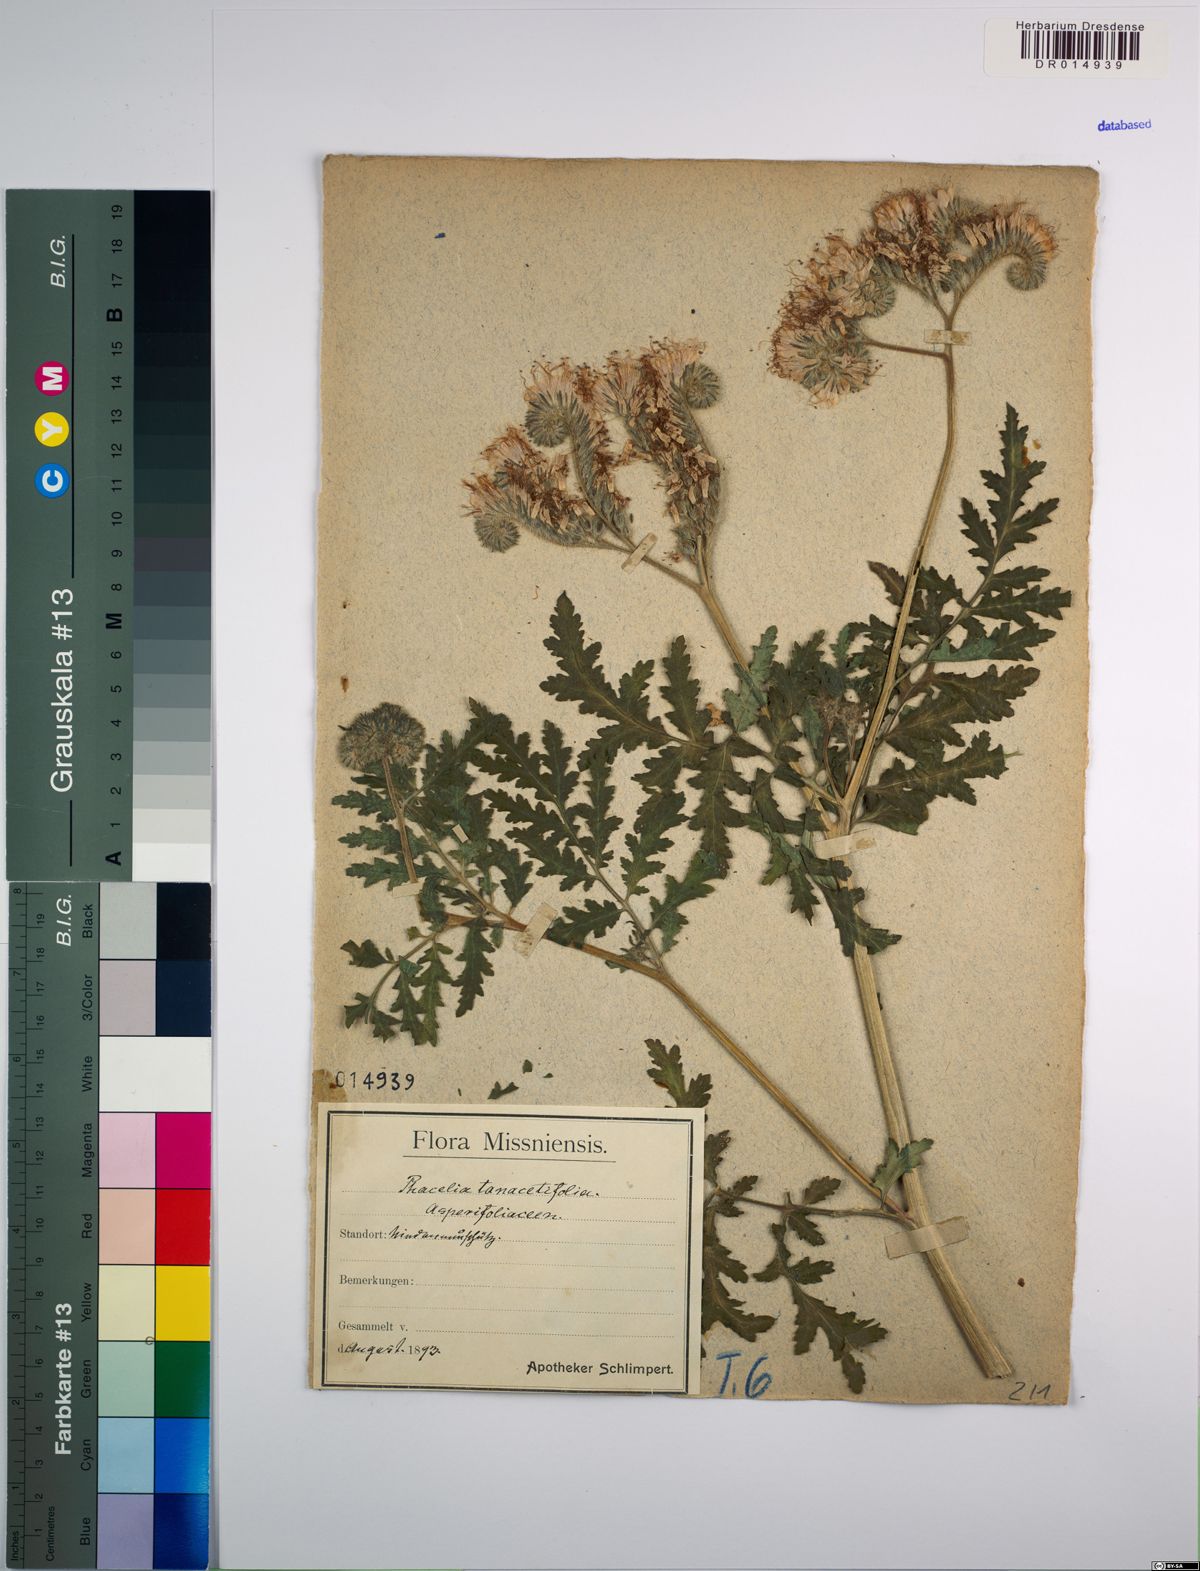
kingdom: Plantae
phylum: Tracheophyta
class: Magnoliopsida
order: Boraginales
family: Hydrophyllaceae
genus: Phacelia
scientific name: Phacelia tanacetifolia
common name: Phacelia
